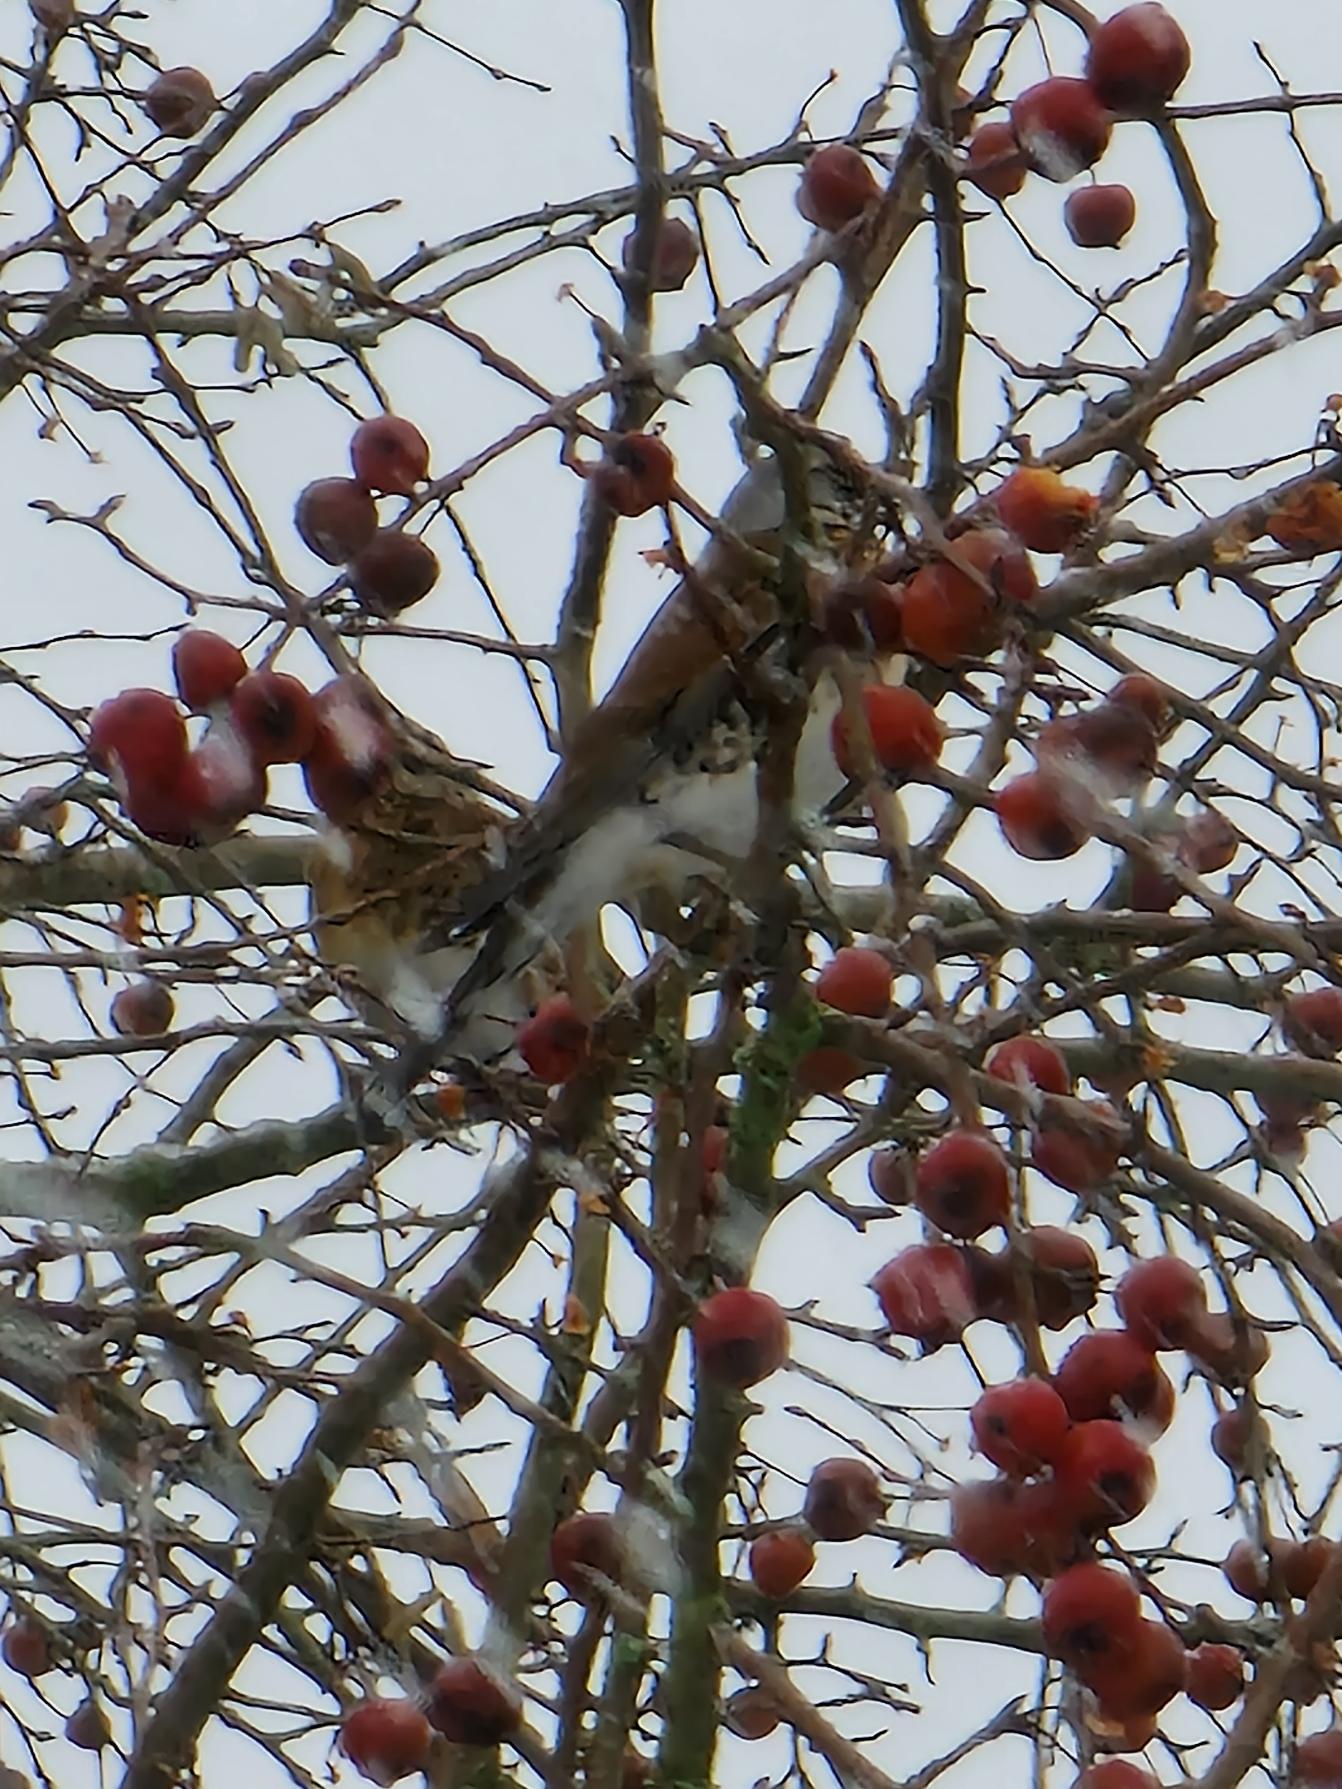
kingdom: Animalia
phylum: Chordata
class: Aves
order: Passeriformes
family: Turdidae
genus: Turdus
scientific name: Turdus pilaris
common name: Sjagger
